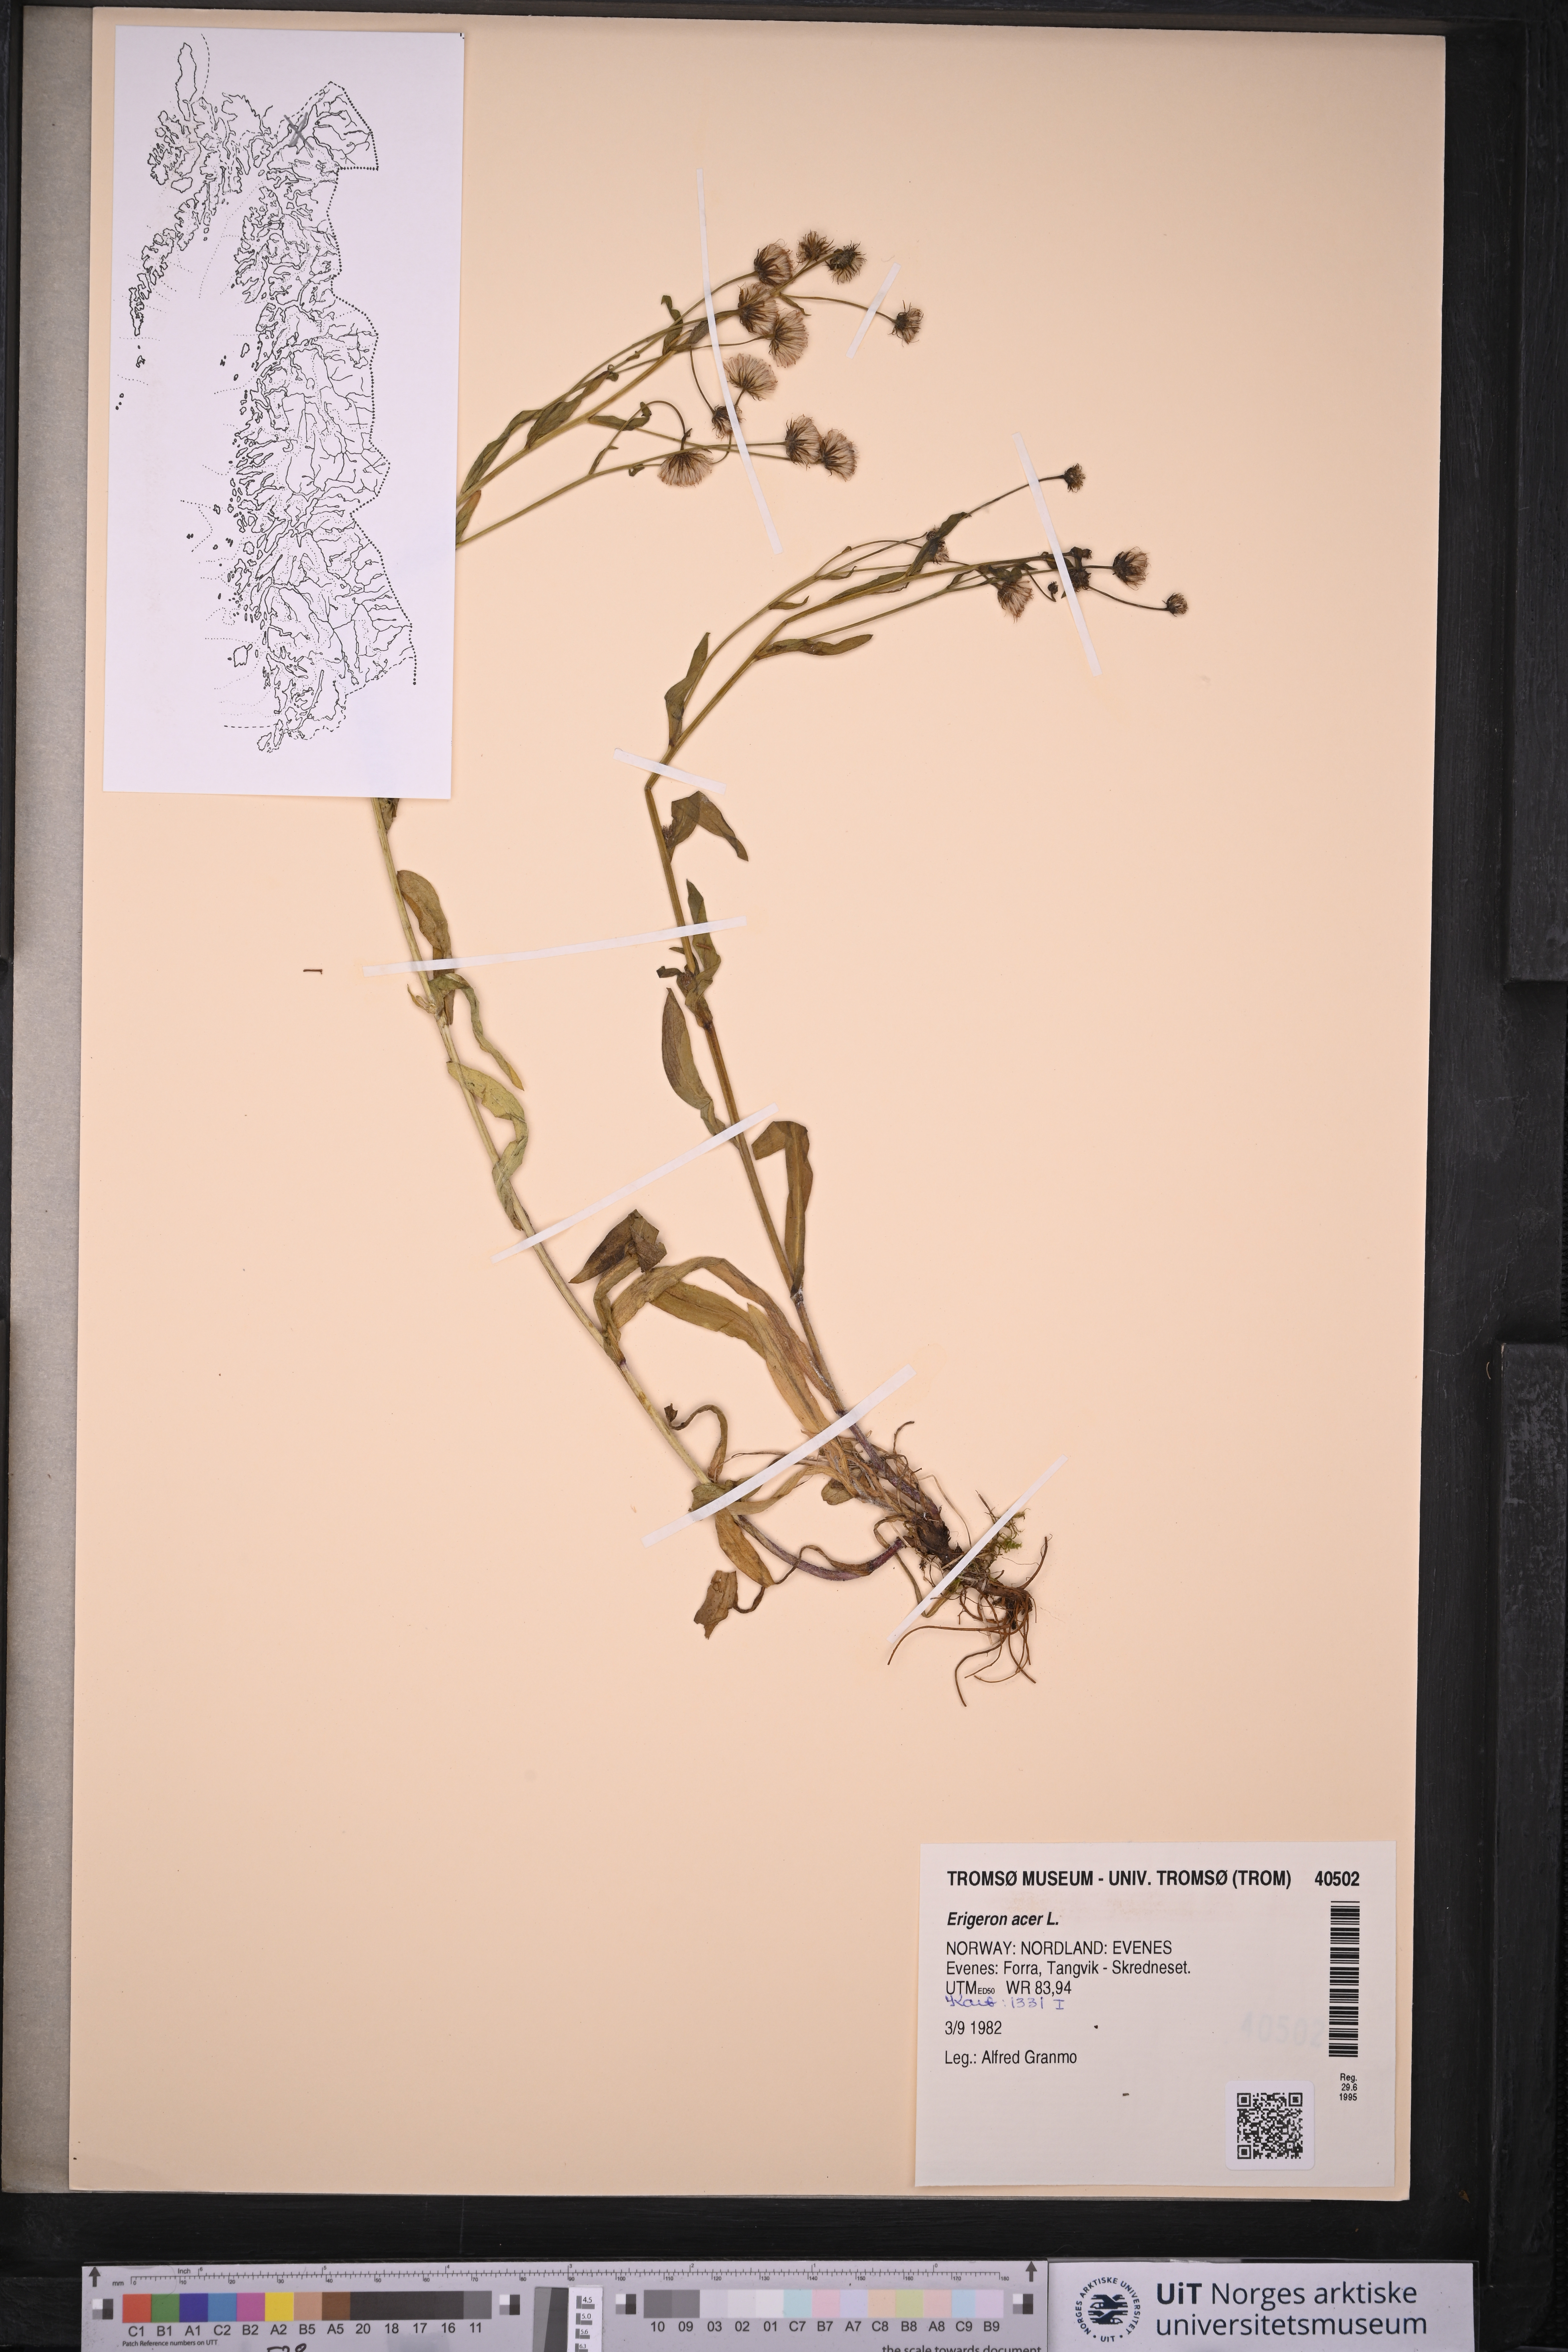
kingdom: Plantae
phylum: Tracheophyta
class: Magnoliopsida
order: Asterales
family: Asteraceae
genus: Erigeron
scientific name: Erigeron acris
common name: Blue fleabane
